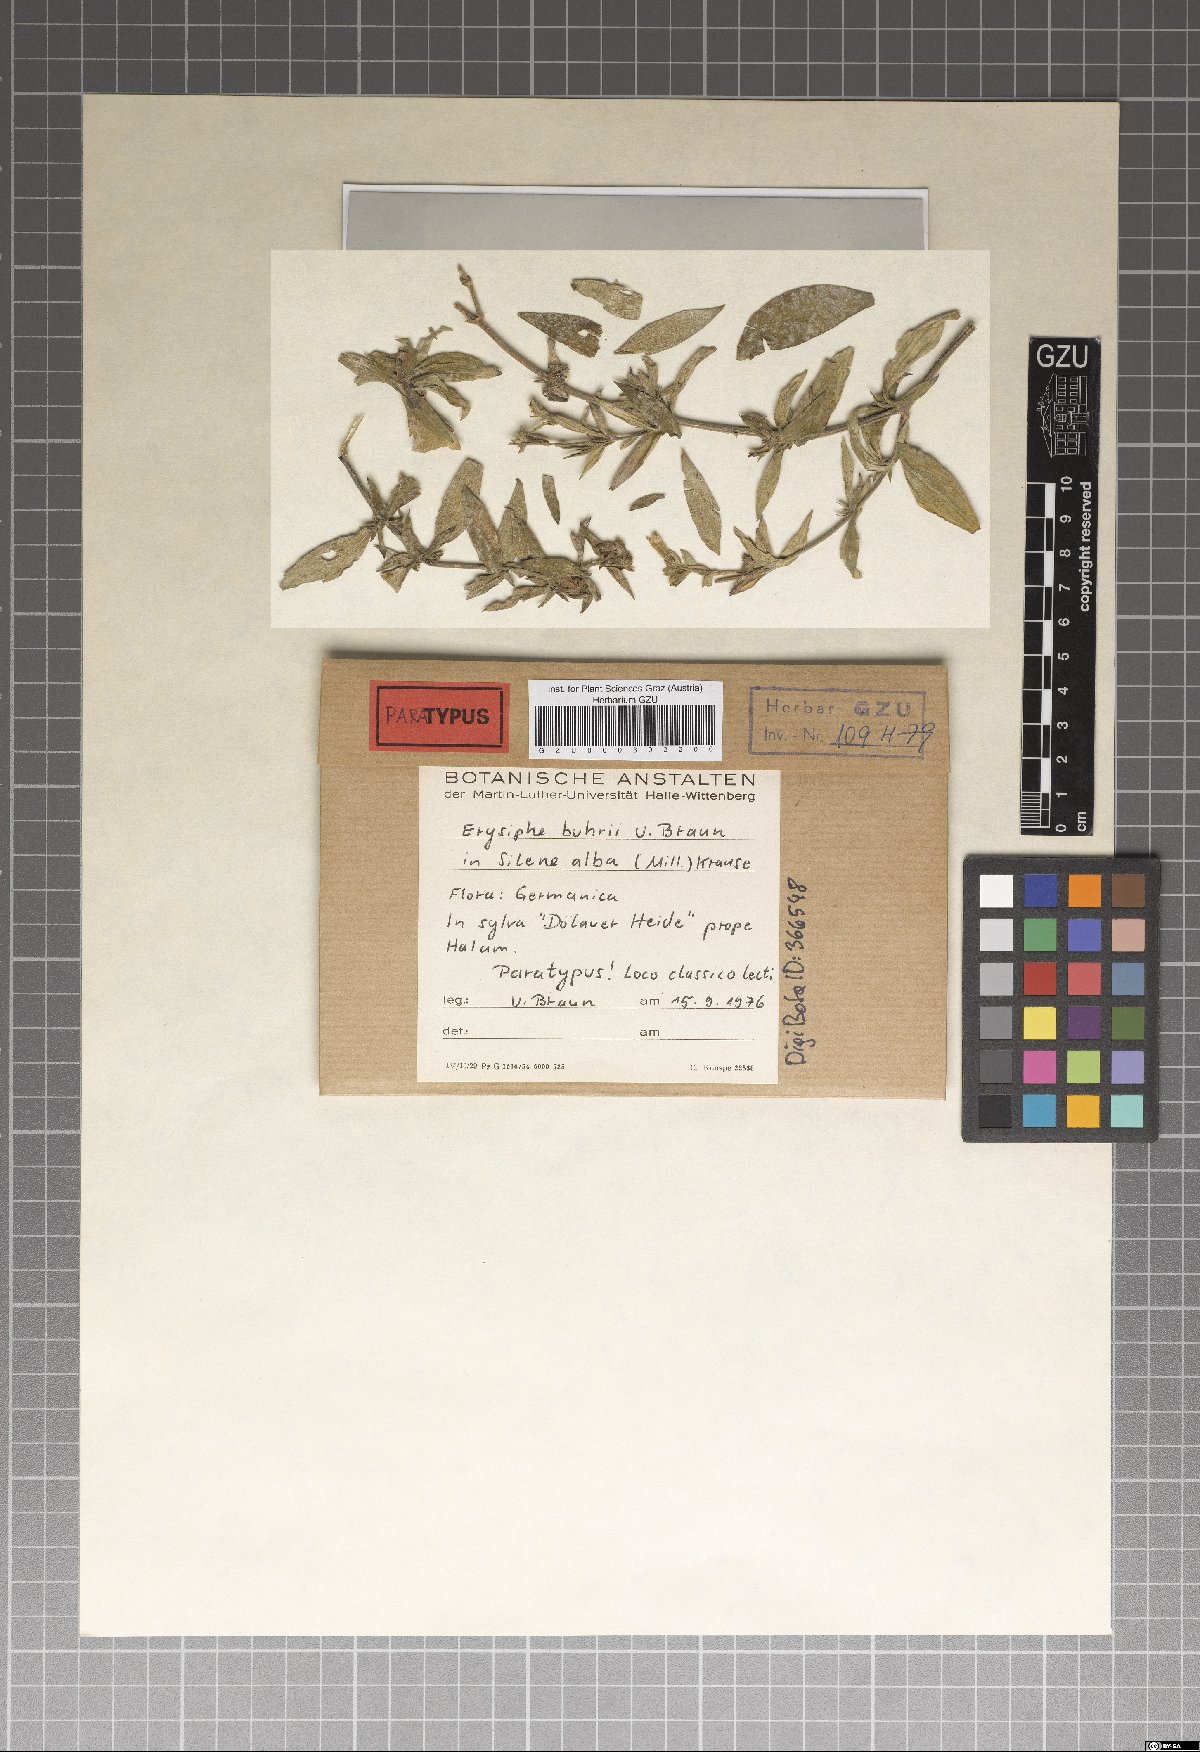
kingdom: Fungi
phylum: Ascomycota
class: Leotiomycetes
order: Helotiales
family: Erysiphaceae
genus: Erysiphe
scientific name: Erysiphe buhrii
